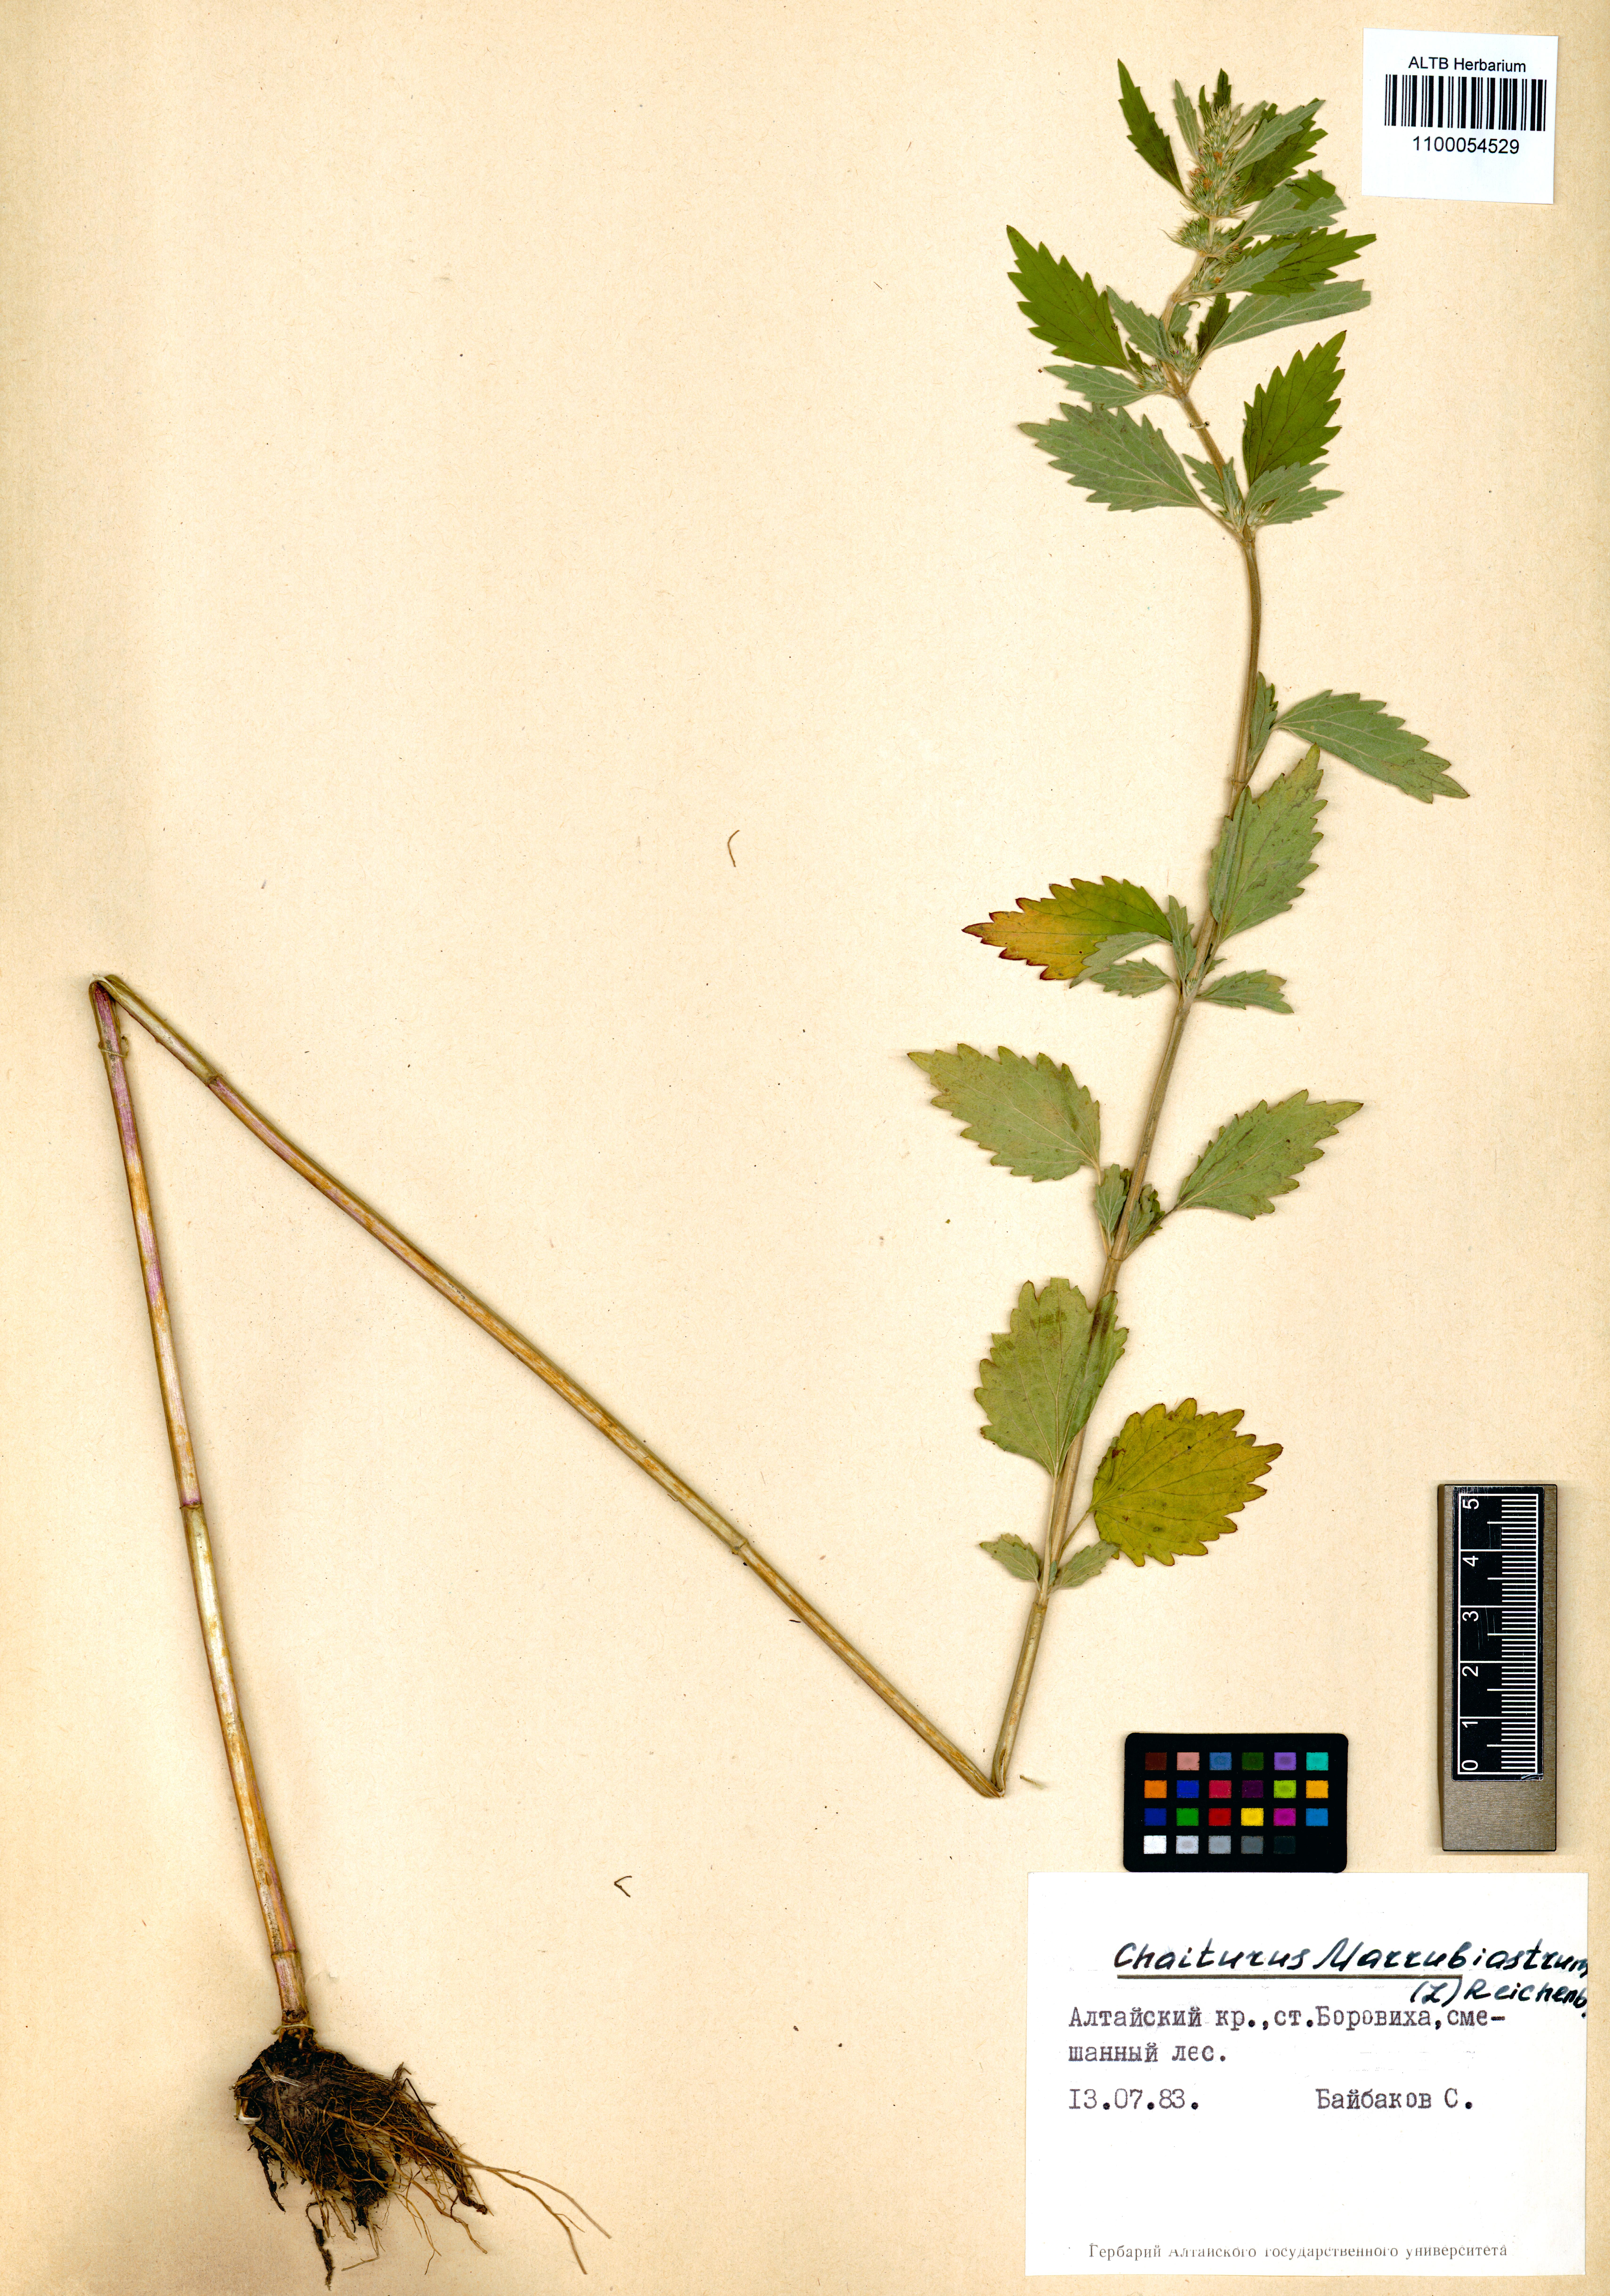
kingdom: Plantae
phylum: Tracheophyta
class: Magnoliopsida
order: Lamiales
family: Lamiaceae
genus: Chaiturus
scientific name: Chaiturus marrubiastrum
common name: Lion's tail
